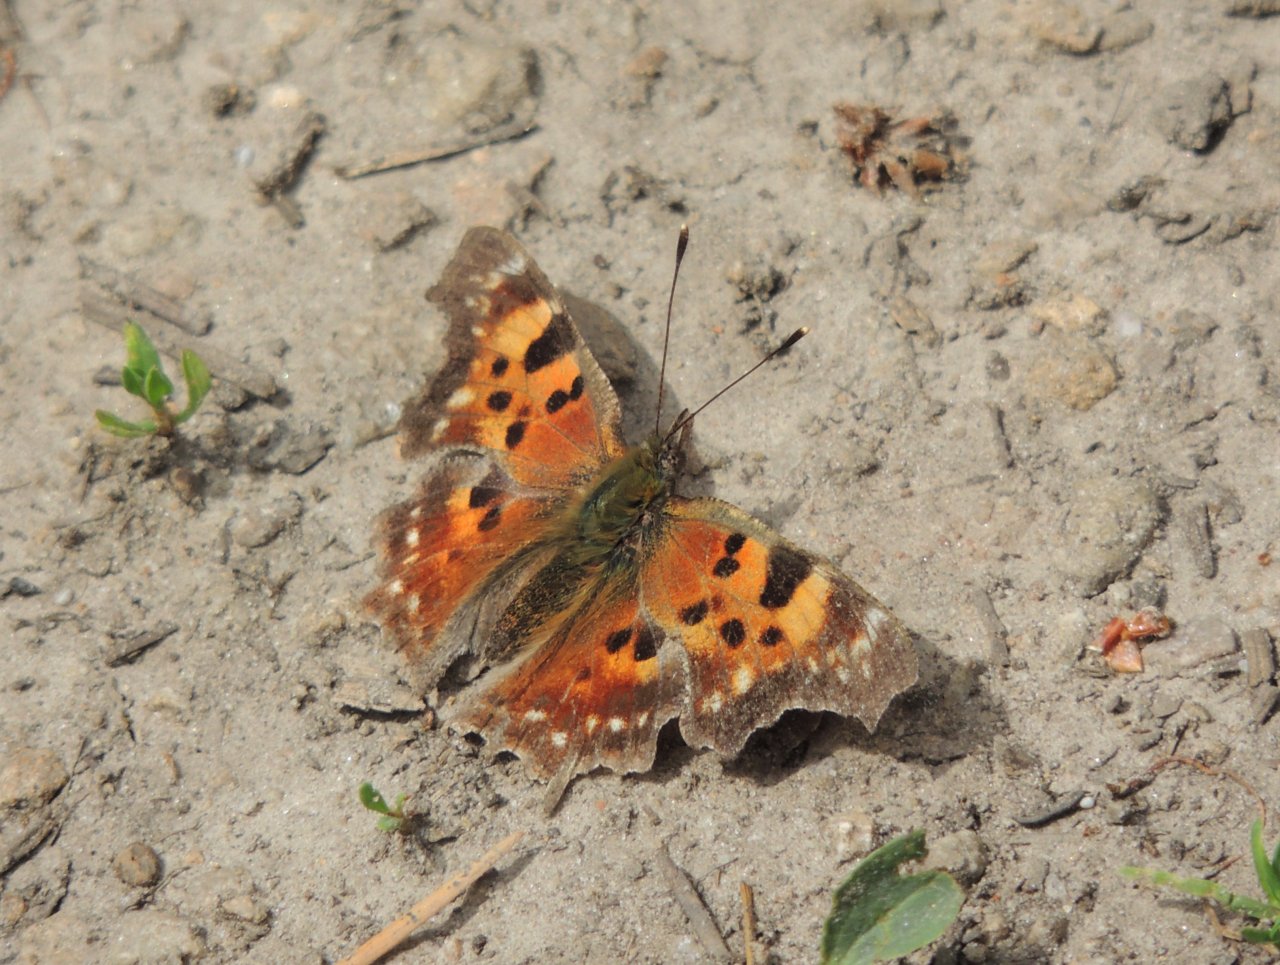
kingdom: Animalia
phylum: Arthropoda
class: Insecta
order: Lepidoptera
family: Nymphalidae
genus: Polygonia
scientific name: Polygonia faunus
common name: Green Comma
